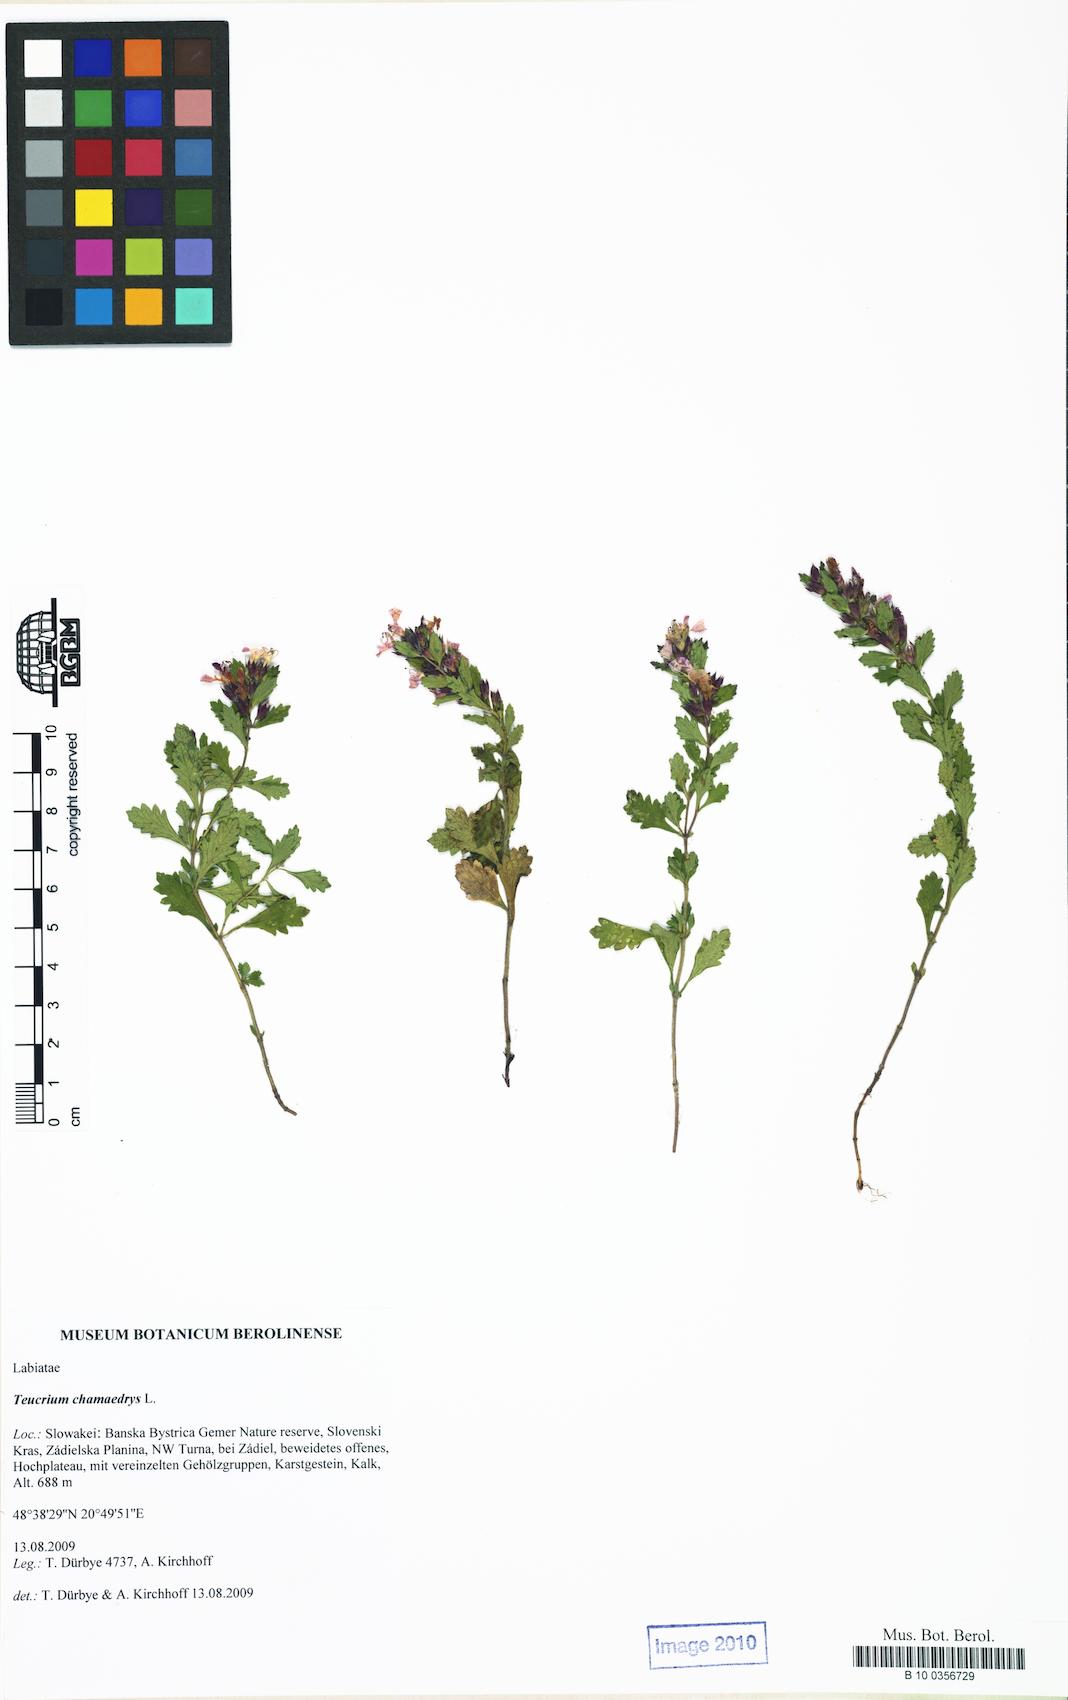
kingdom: Plantae
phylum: Tracheophyta
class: Magnoliopsida
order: Lamiales
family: Lamiaceae
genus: Teucrium
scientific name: Teucrium chamaedrys
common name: Wall germander
